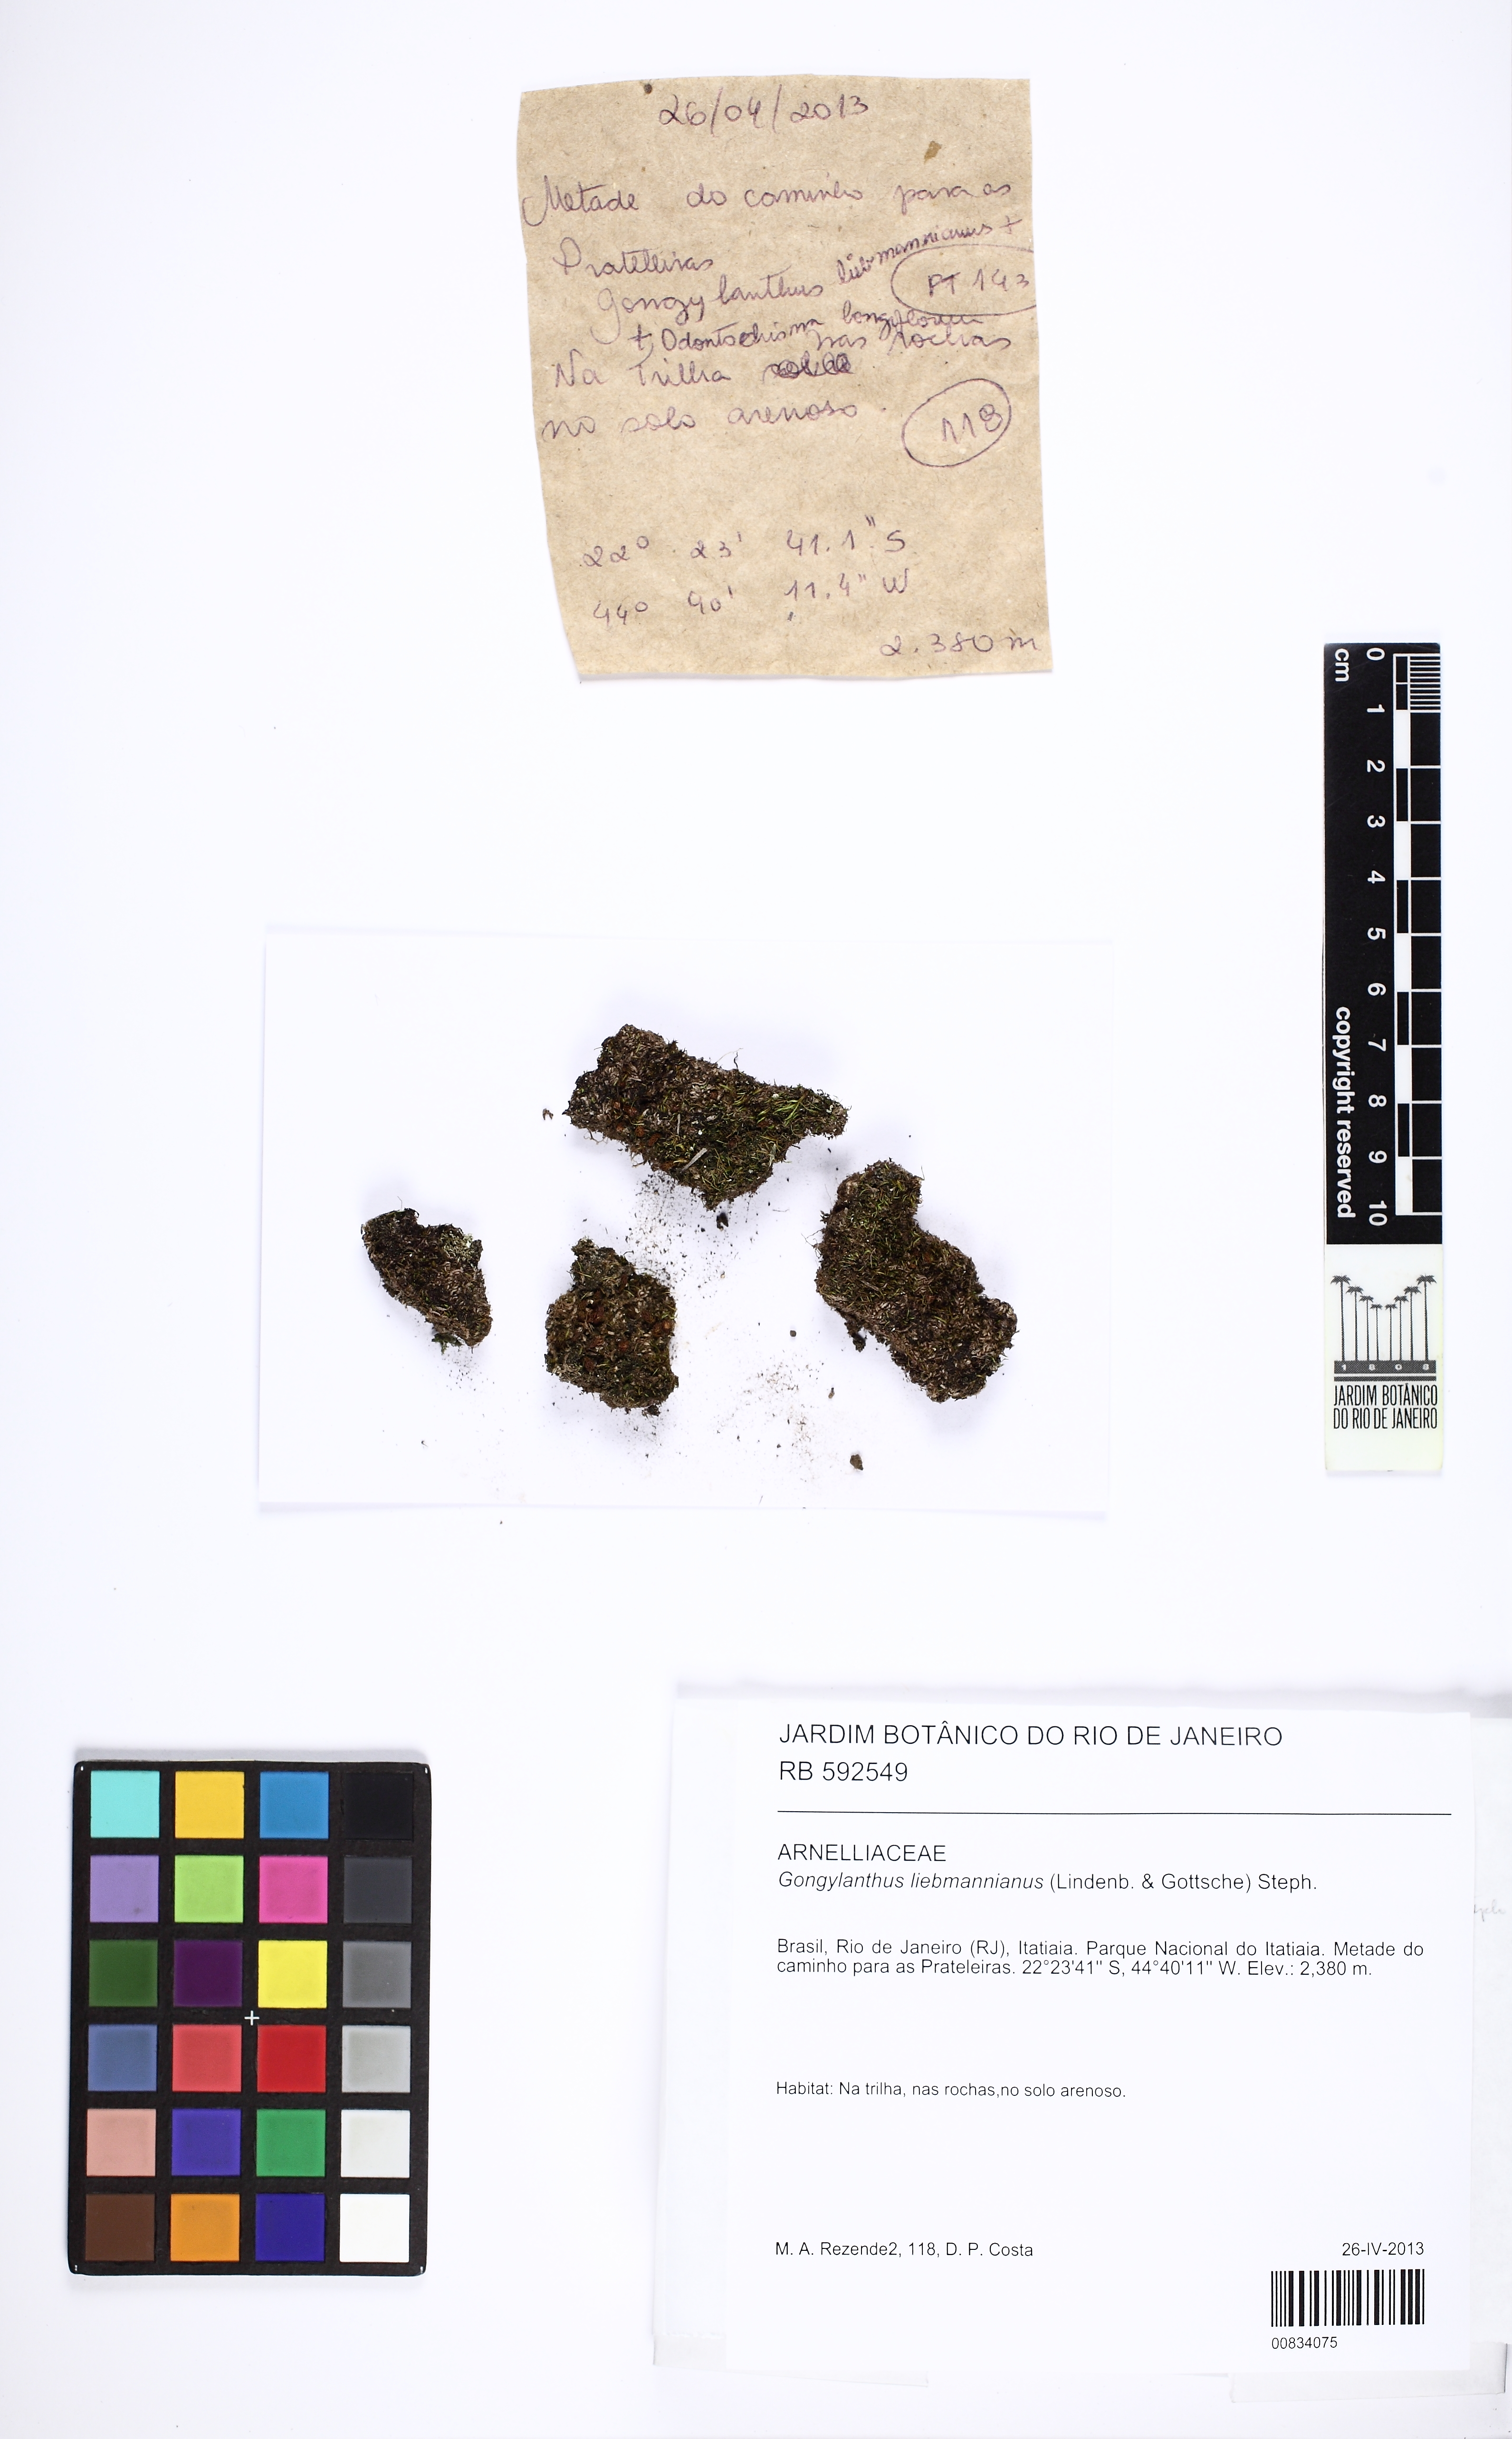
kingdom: Plantae
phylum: Marchantiophyta
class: Jungermanniopsida
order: Jungermanniales
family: Southbyaceae
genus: Gongylanthus
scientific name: Gongylanthus liebmannianus
